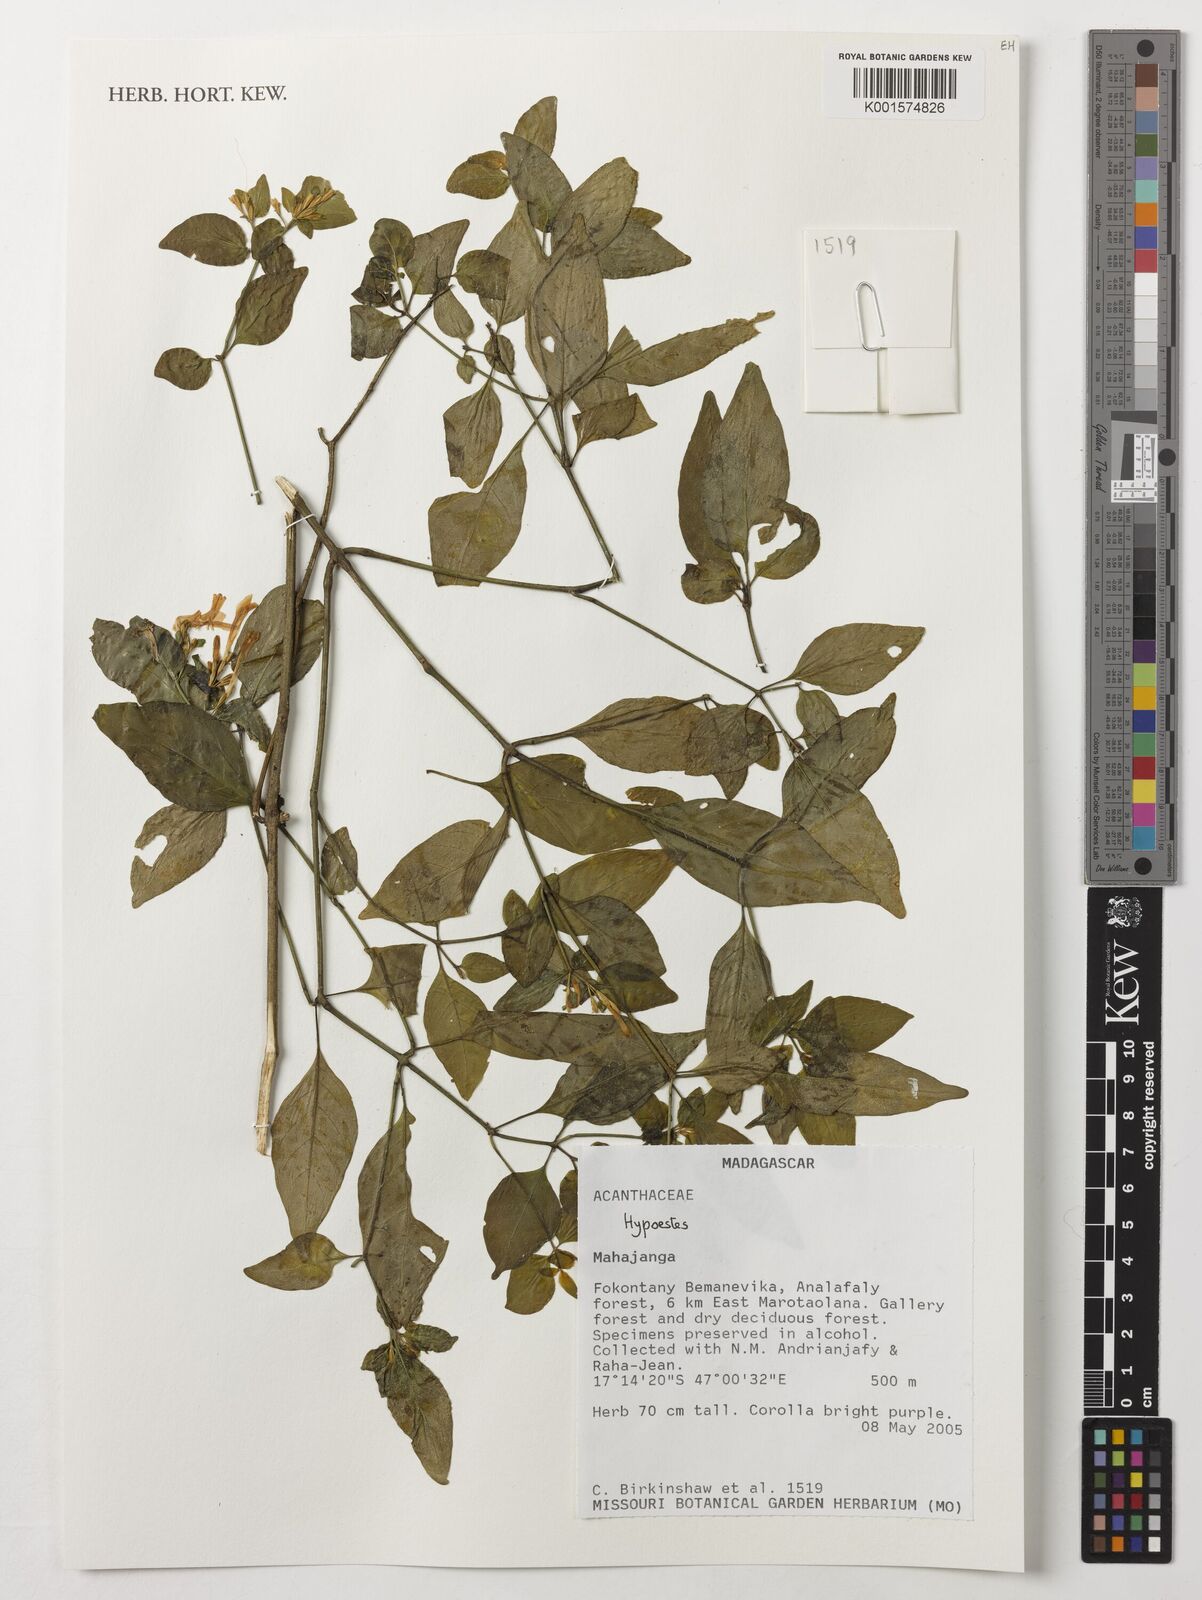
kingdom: Plantae
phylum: Tracheophyta
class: Magnoliopsida
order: Lamiales
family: Acanthaceae
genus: Hypoestes
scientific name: Hypoestes
